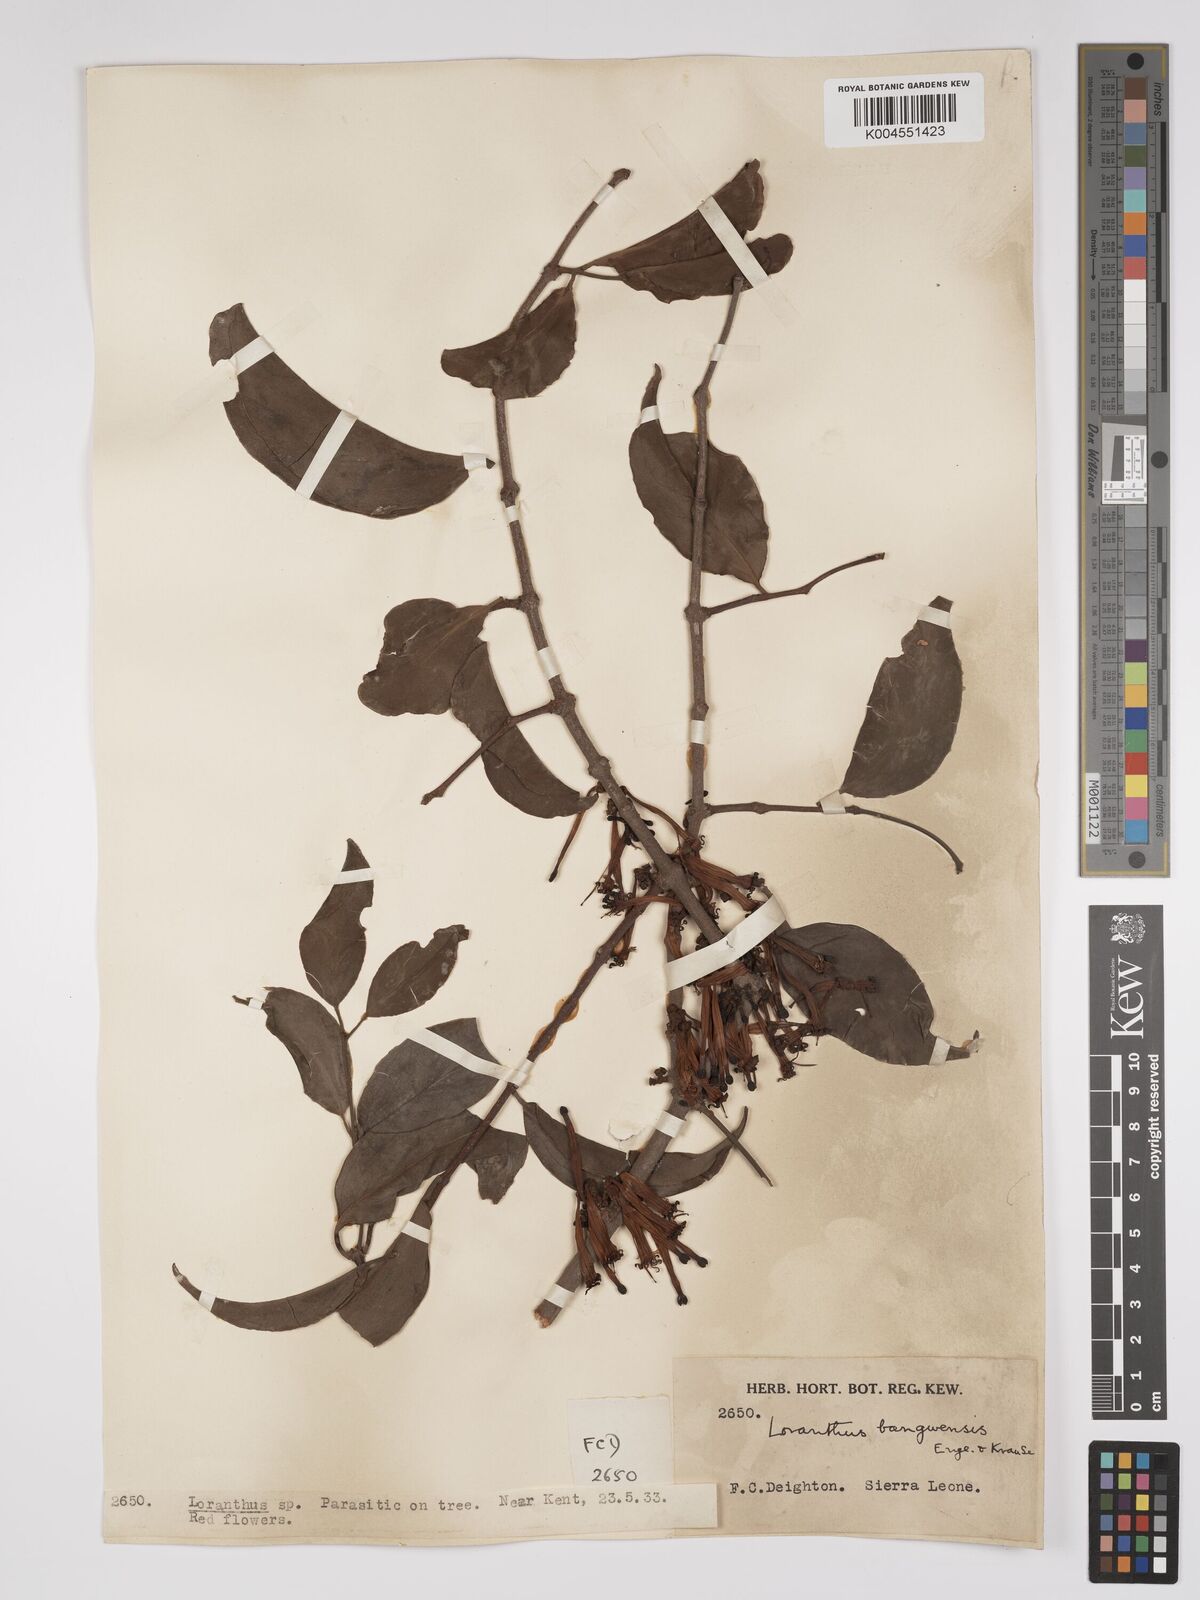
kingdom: Plantae
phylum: Tracheophyta
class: Magnoliopsida
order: Santalales
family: Loranthaceae
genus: Tapinanthus
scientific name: Tapinanthus bangwensis
